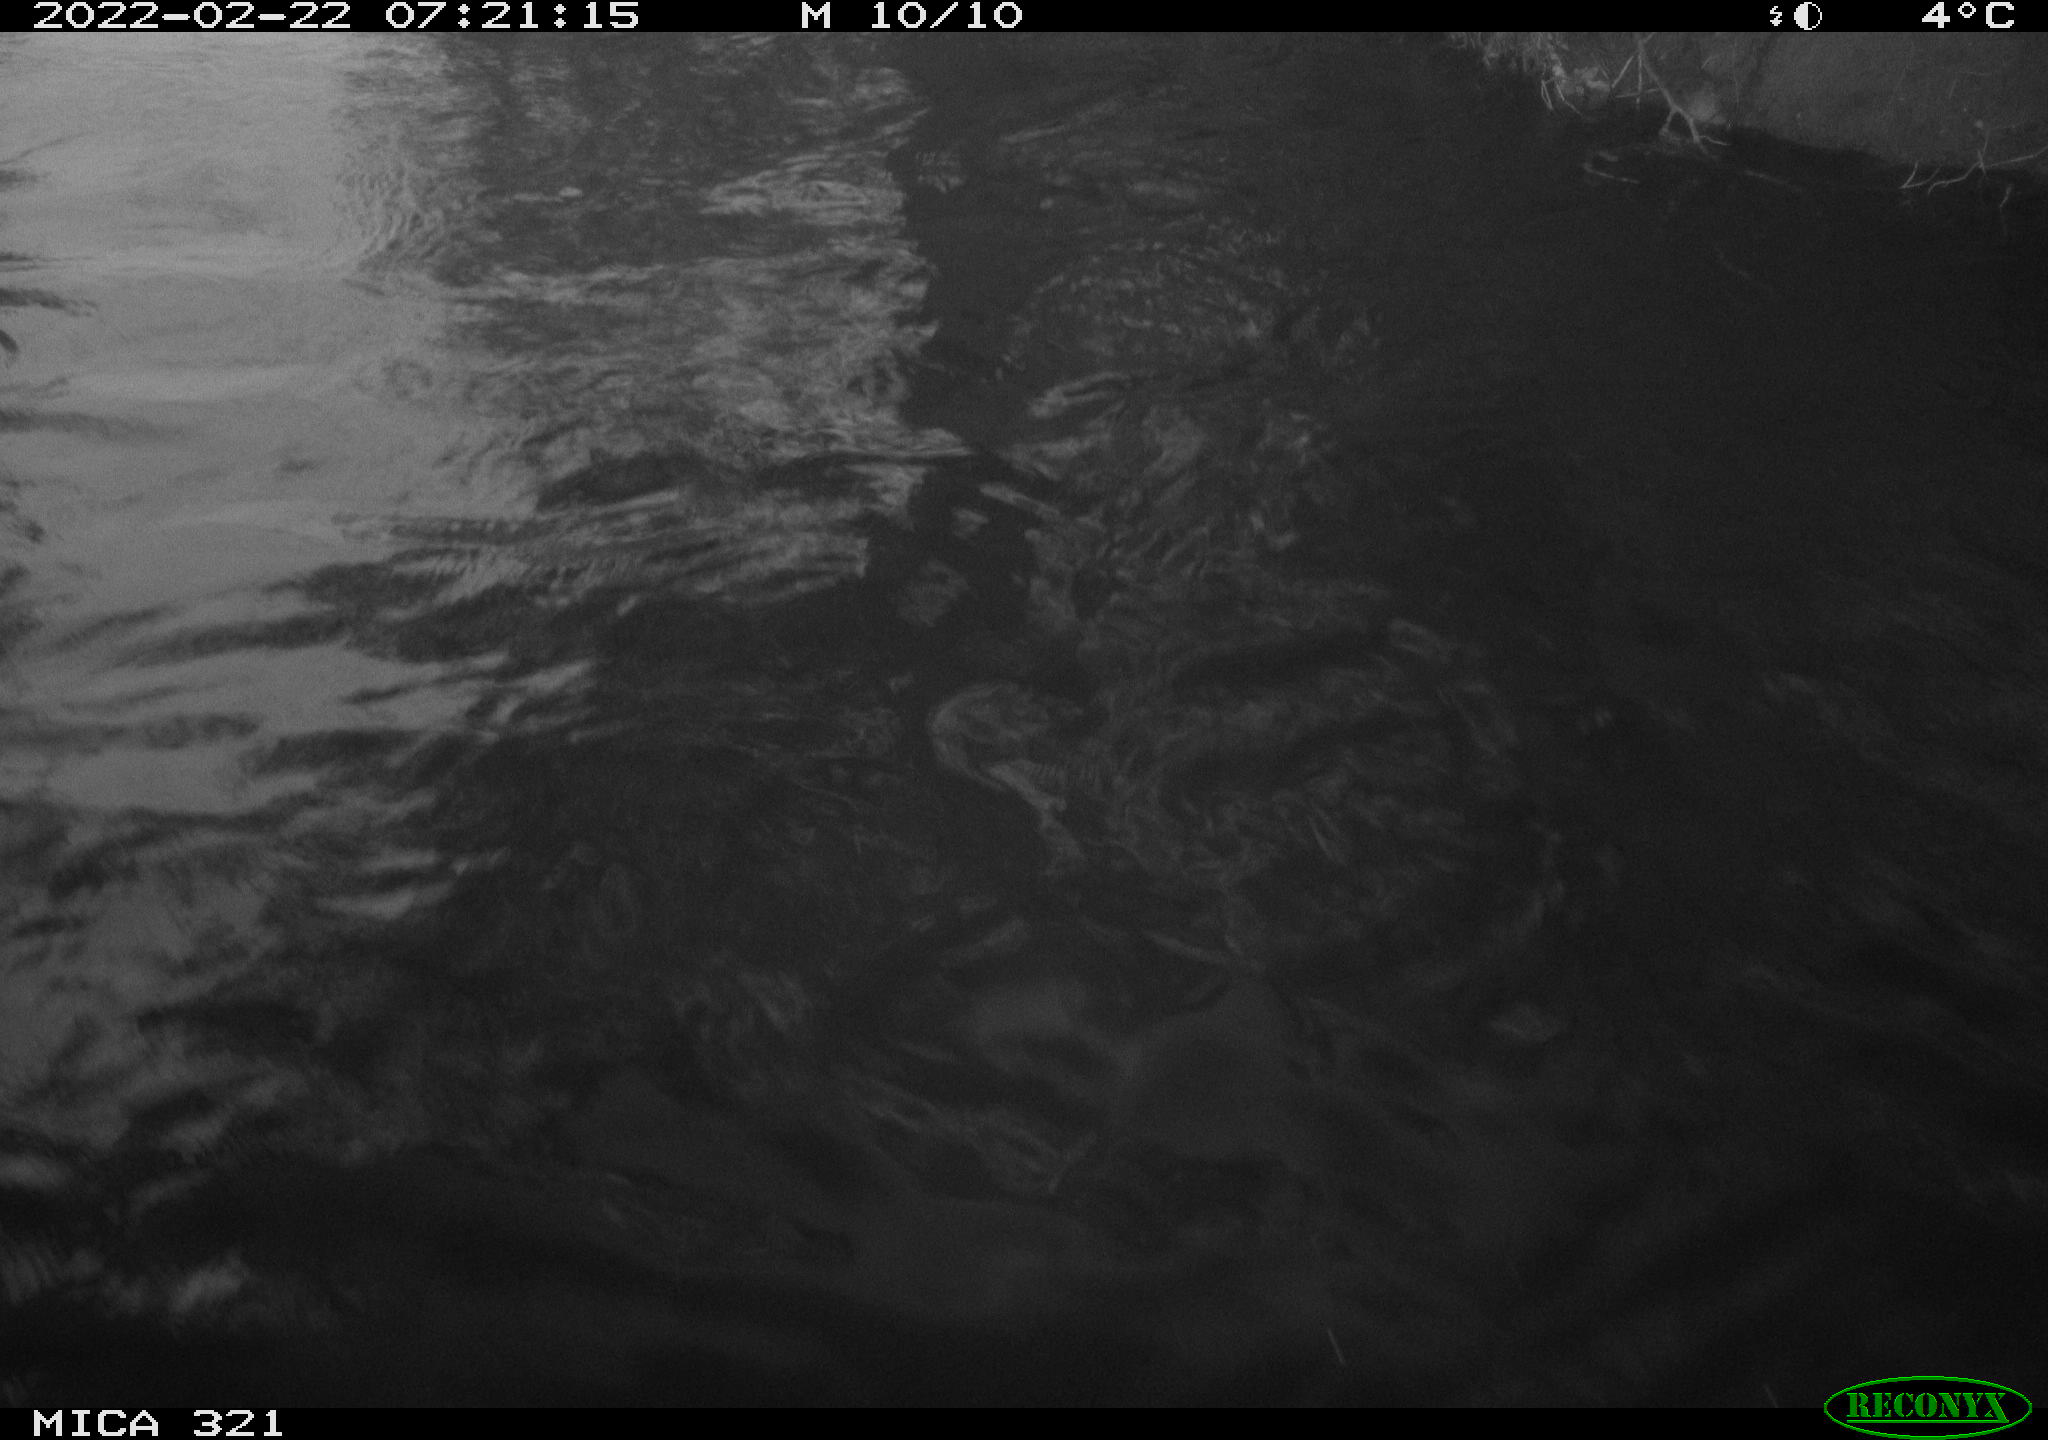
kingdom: Animalia
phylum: Chordata
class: Aves
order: Anseriformes
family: Anatidae
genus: Anas
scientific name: Anas platyrhynchos
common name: Mallard
